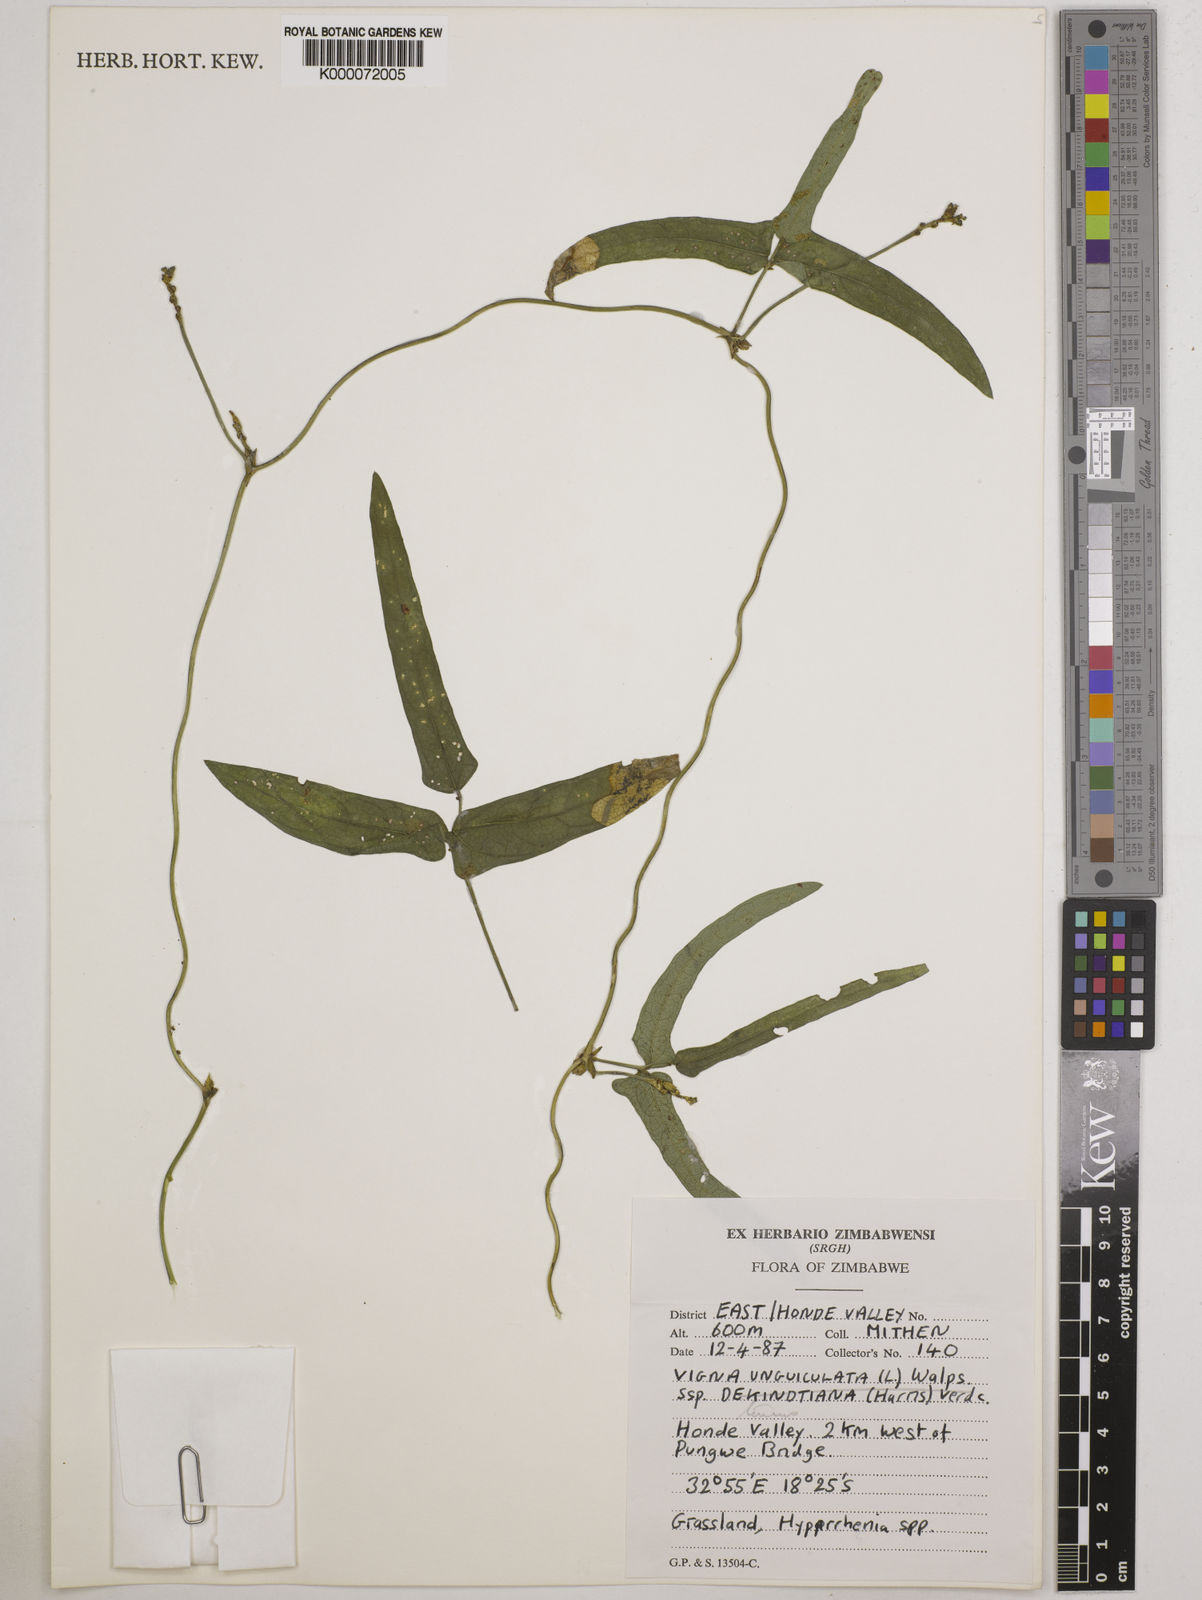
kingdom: Plantae
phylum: Tracheophyta
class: Magnoliopsida
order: Fabales
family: Fabaceae
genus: Vigna
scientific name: Vigna unguiculata
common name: Cowpea
